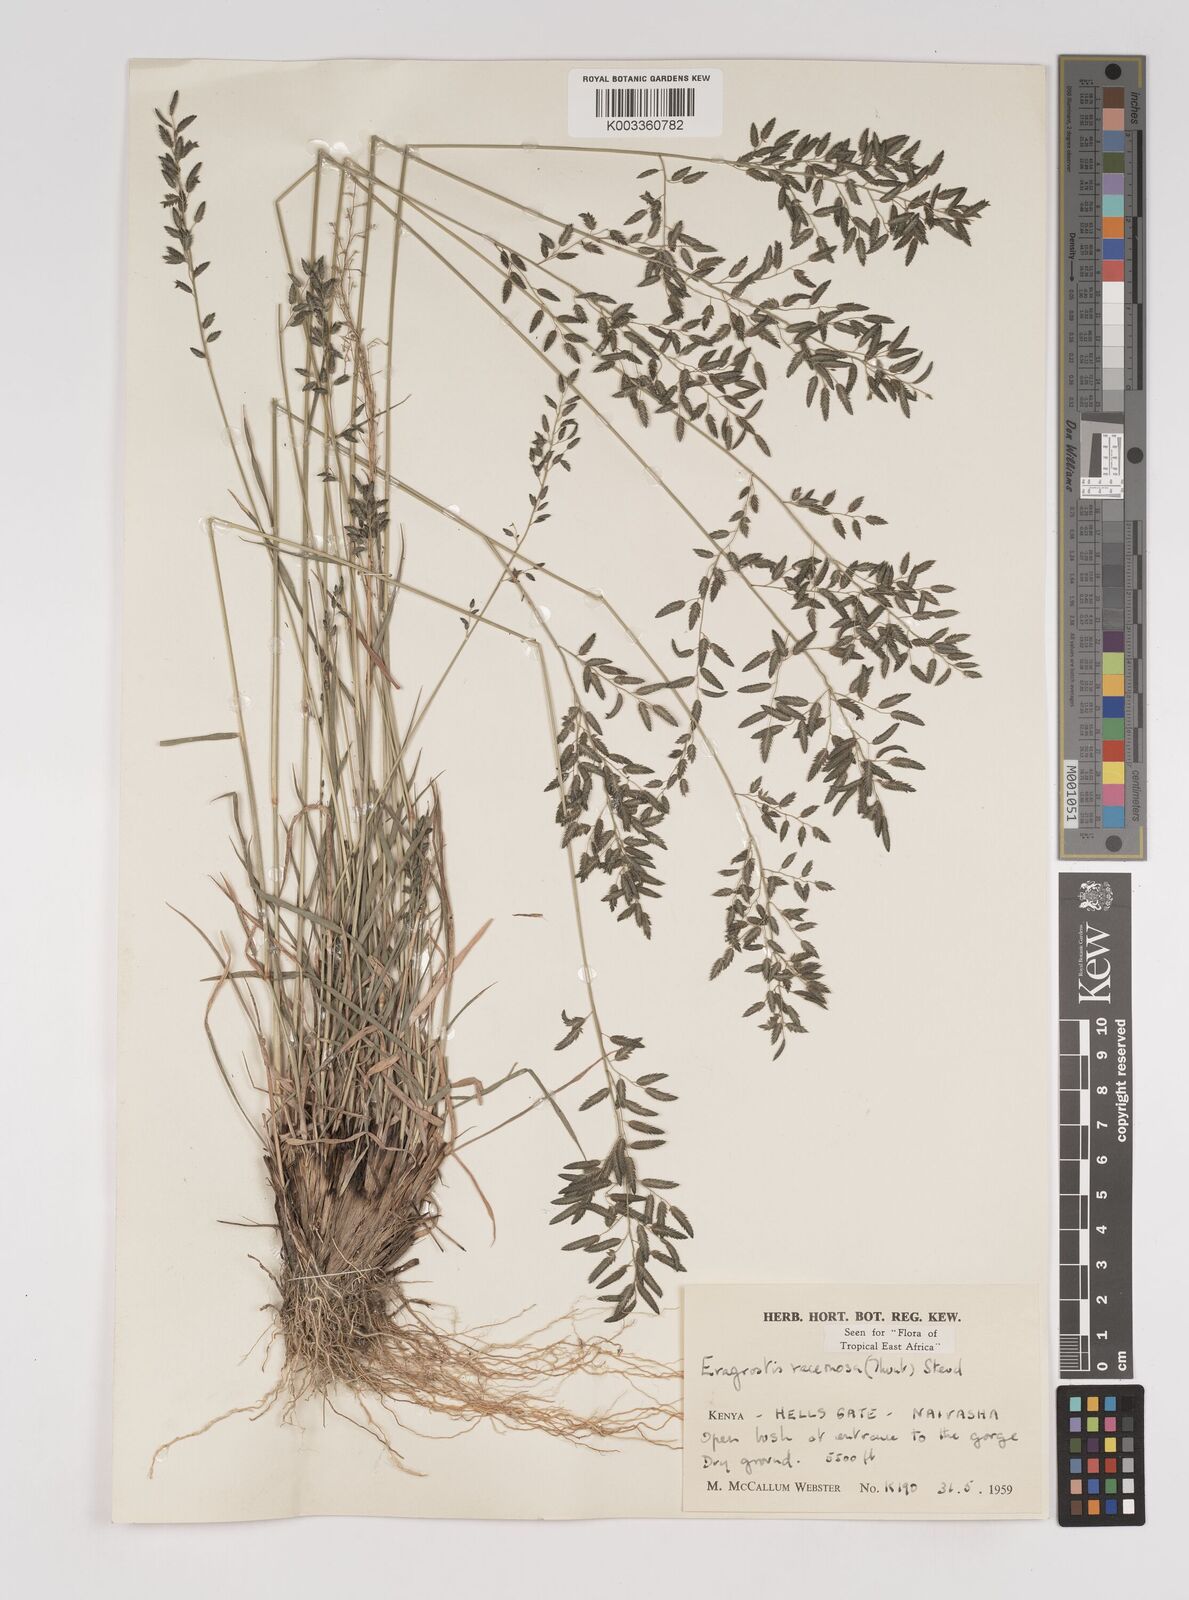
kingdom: Plantae
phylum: Tracheophyta
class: Liliopsida
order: Poales
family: Poaceae
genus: Eragrostis
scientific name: Eragrostis racemosa
